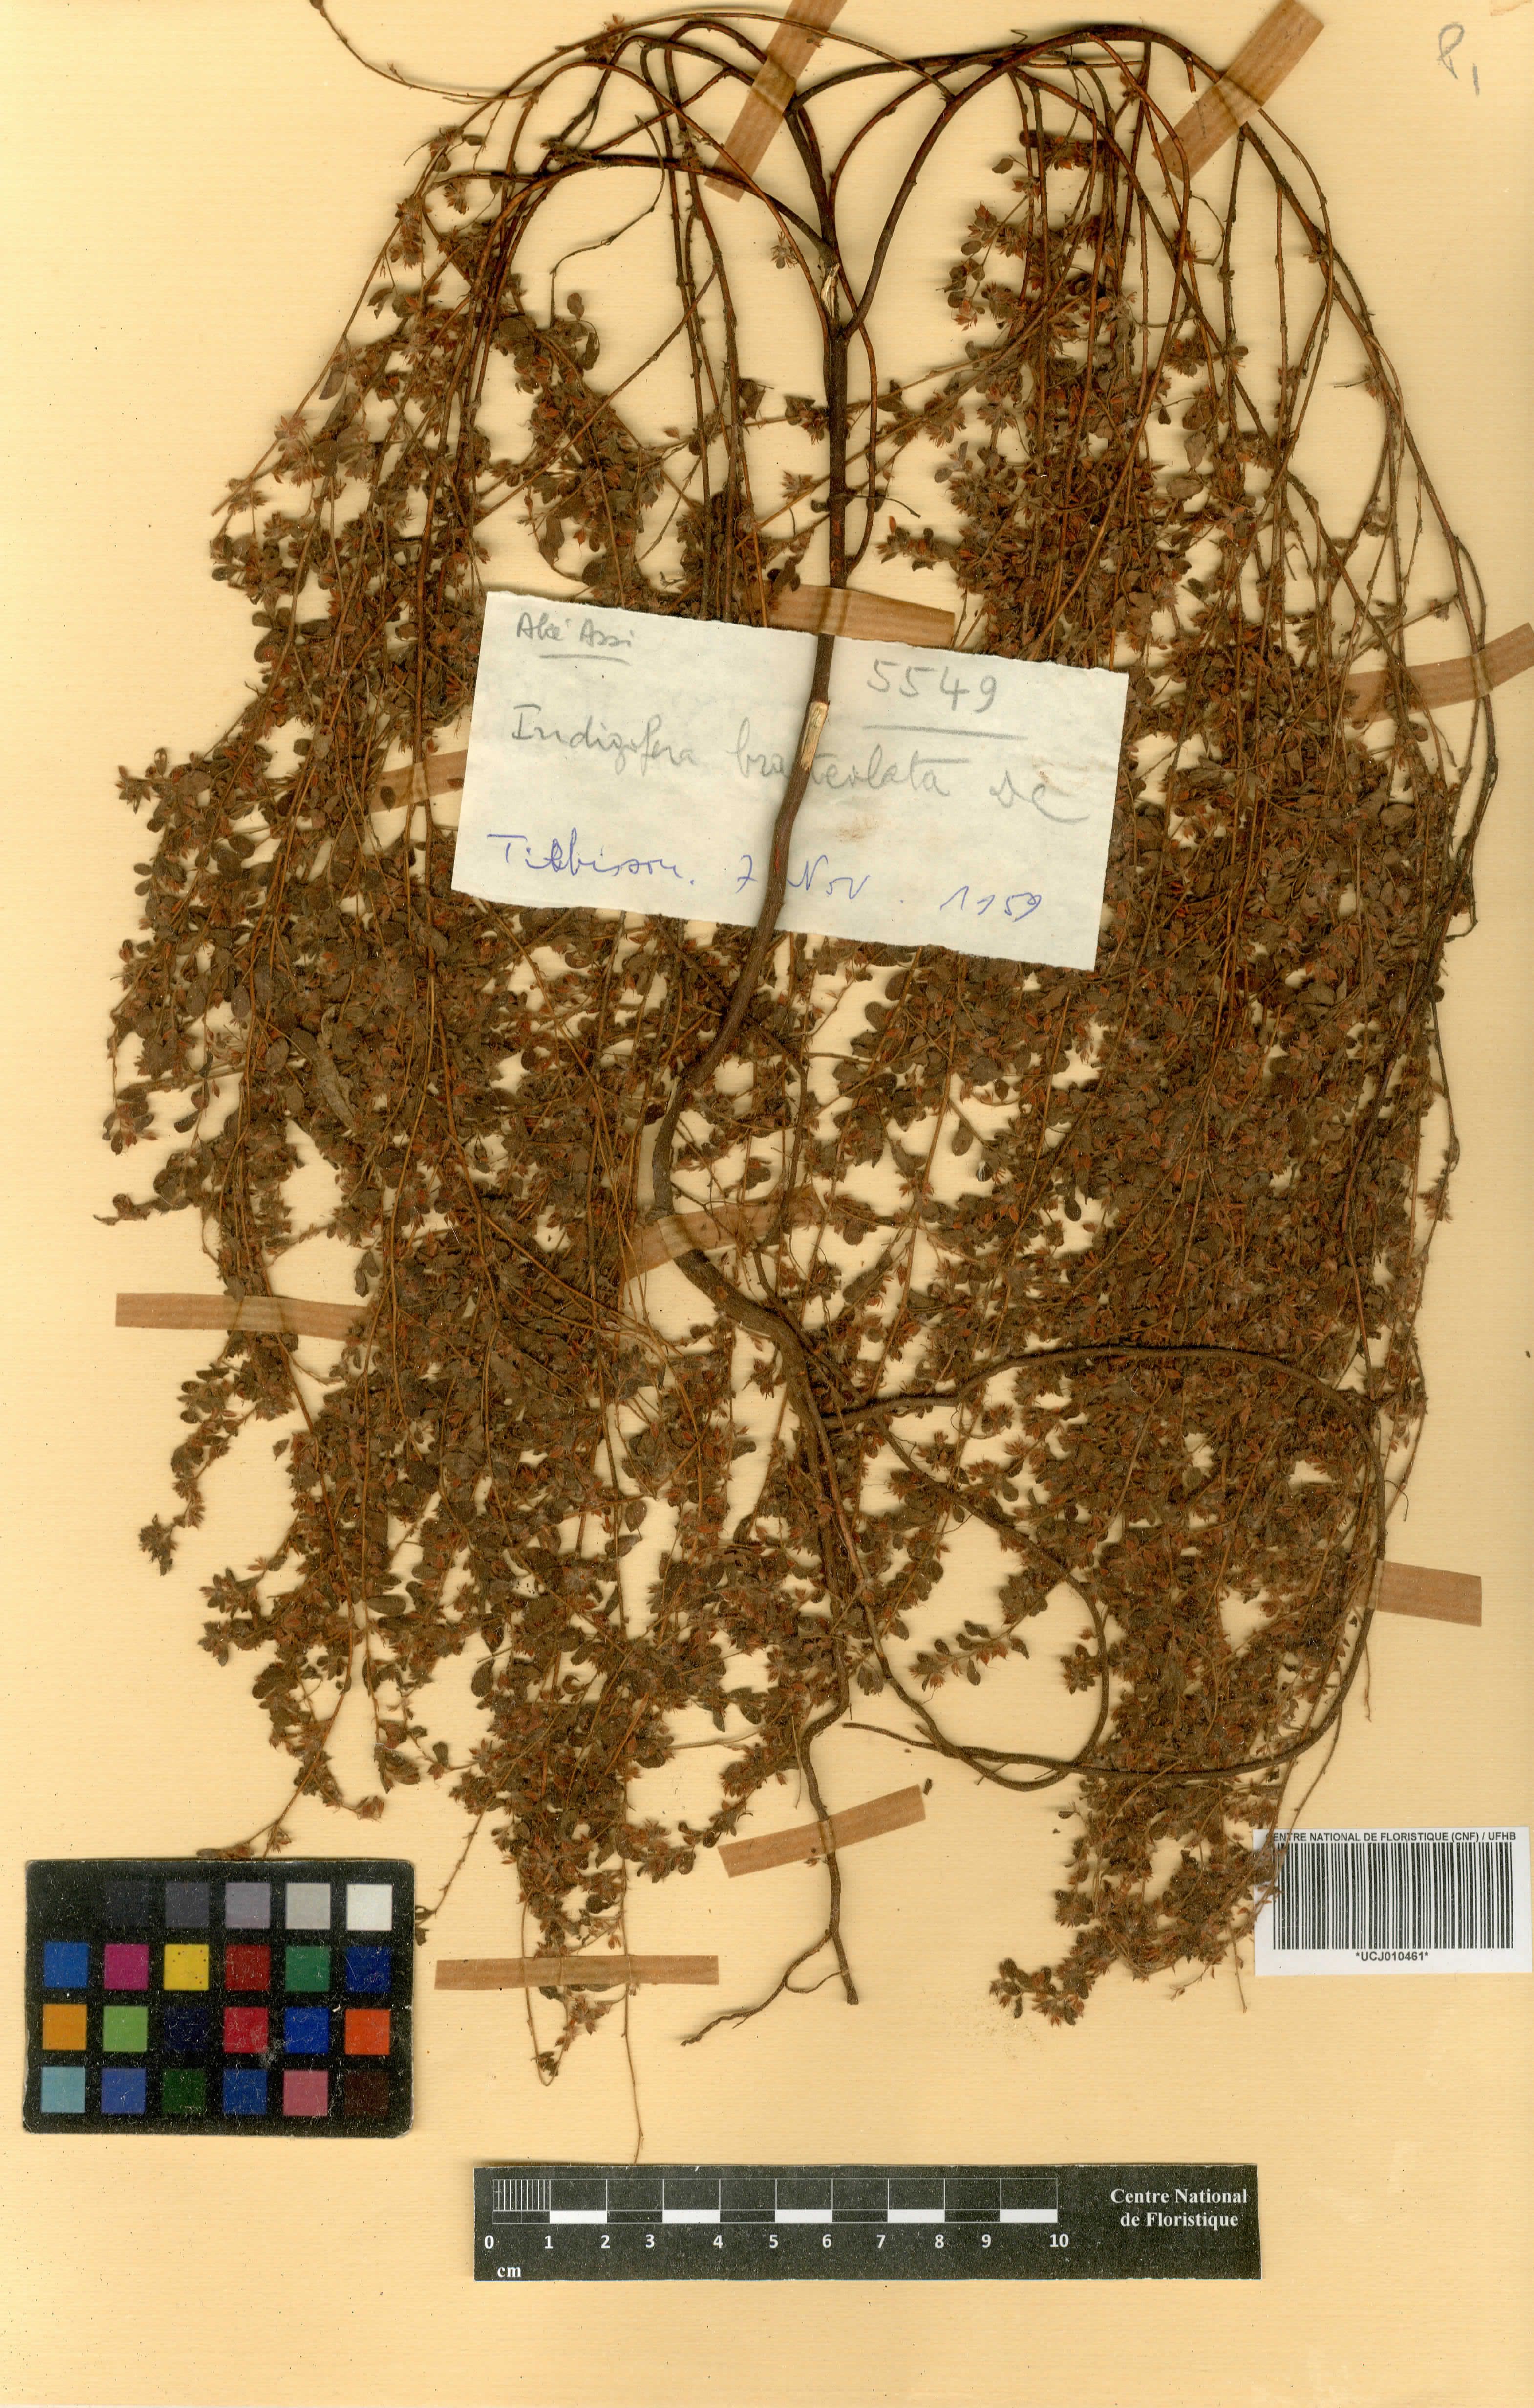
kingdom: Plantae
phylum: Tracheophyta
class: Magnoliopsida
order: Fabales
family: Fabaceae
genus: Indigofera
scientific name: Indigofera bracteolata
